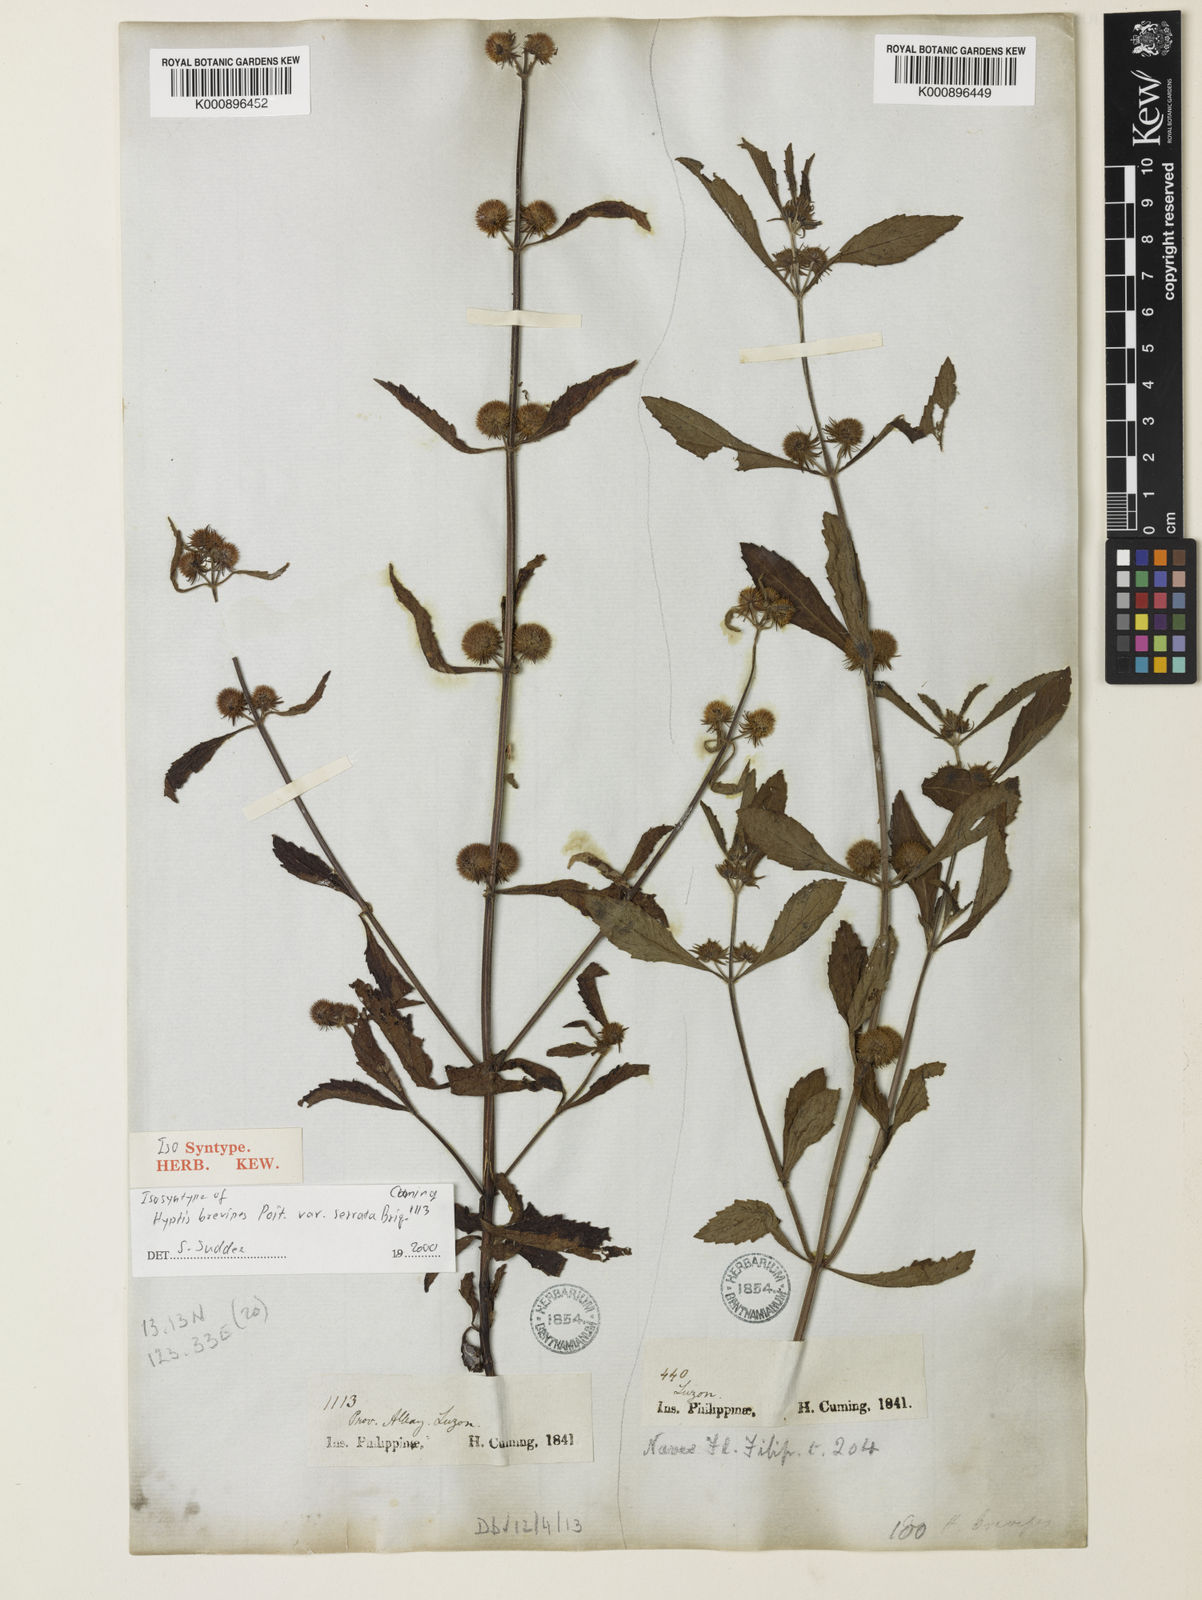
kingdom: Plantae
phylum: Tracheophyta
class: Magnoliopsida
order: Lamiales
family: Lamiaceae
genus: Hyptis
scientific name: Hyptis brevipes
